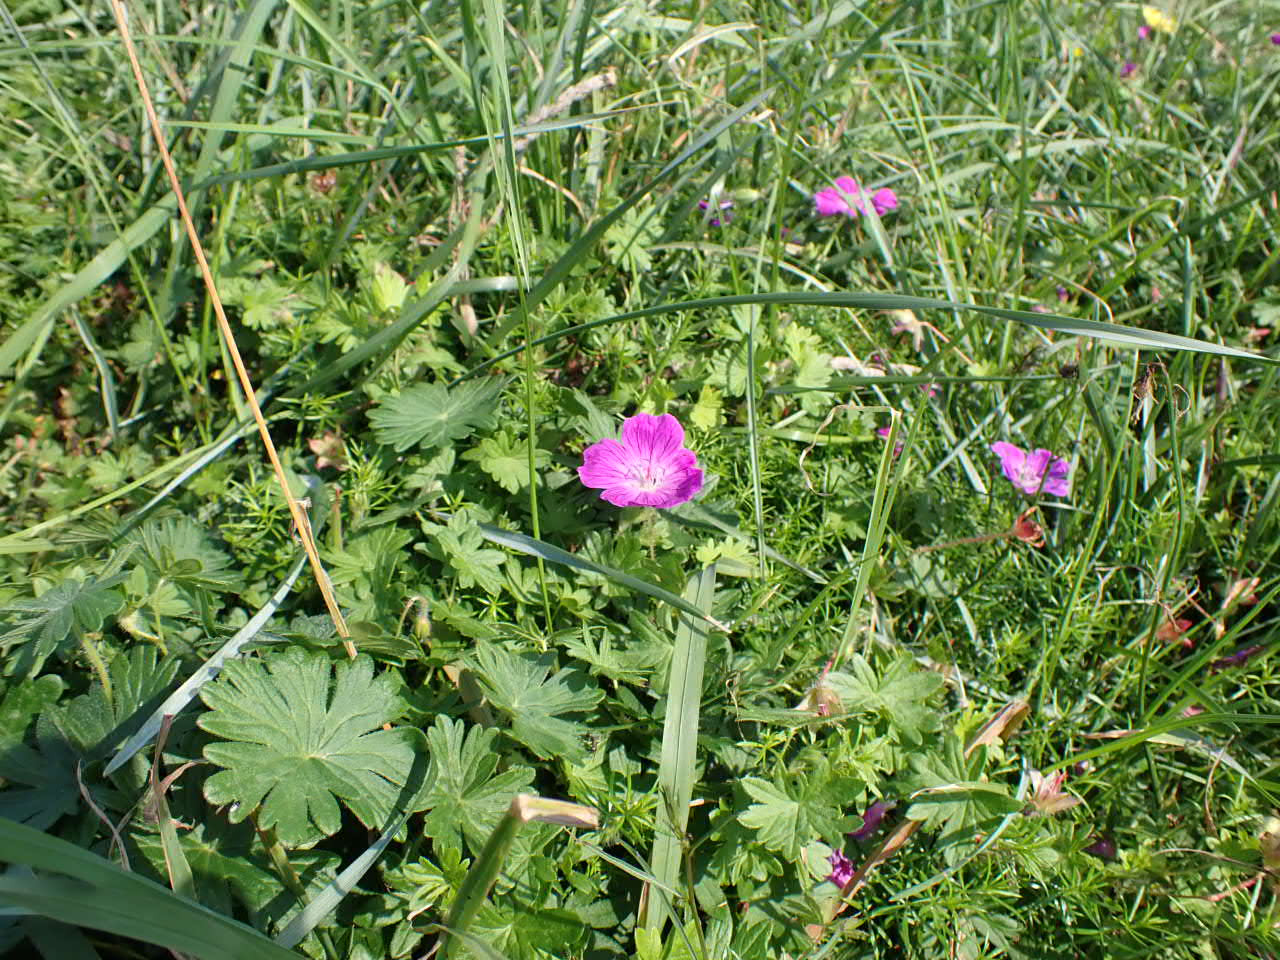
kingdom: Plantae
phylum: Tracheophyta
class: Magnoliopsida
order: Geraniales
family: Geraniaceae
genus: Geranium
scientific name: Geranium sanguineum
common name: Blodrød storkenæb
